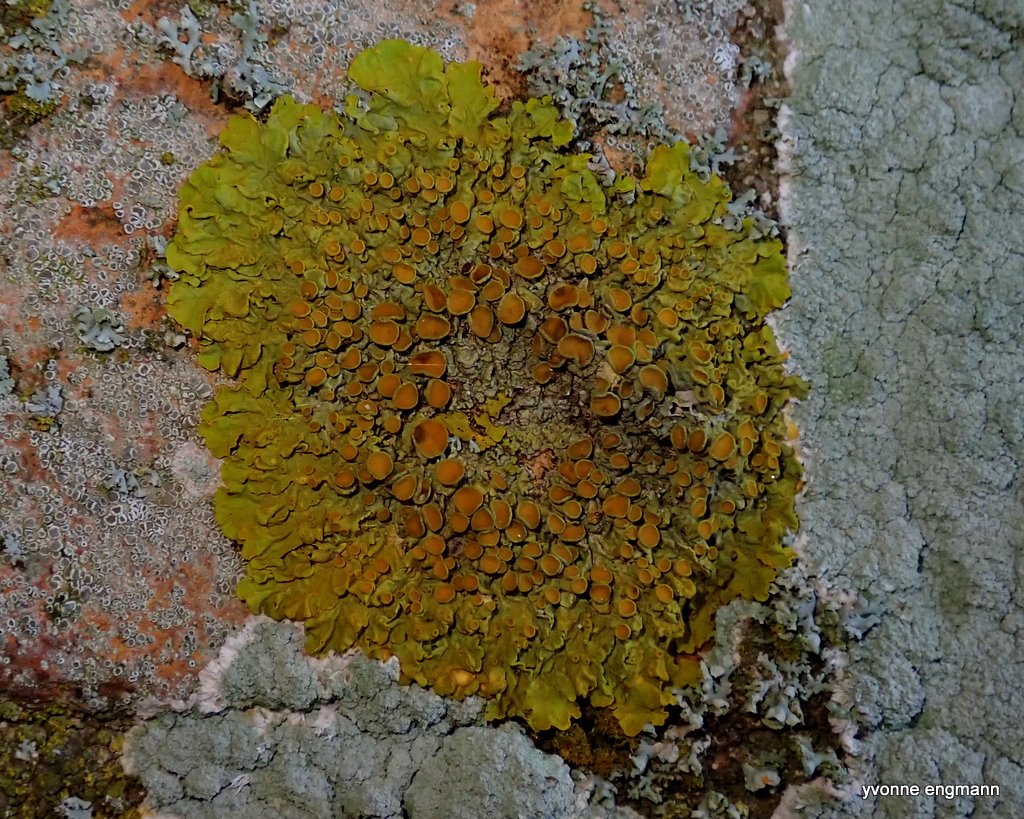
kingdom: Fungi
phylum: Ascomycota
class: Lecanoromycetes
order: Teloschistales
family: Teloschistaceae
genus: Xanthoria
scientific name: Xanthoria parietina
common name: almindelig væggelav
